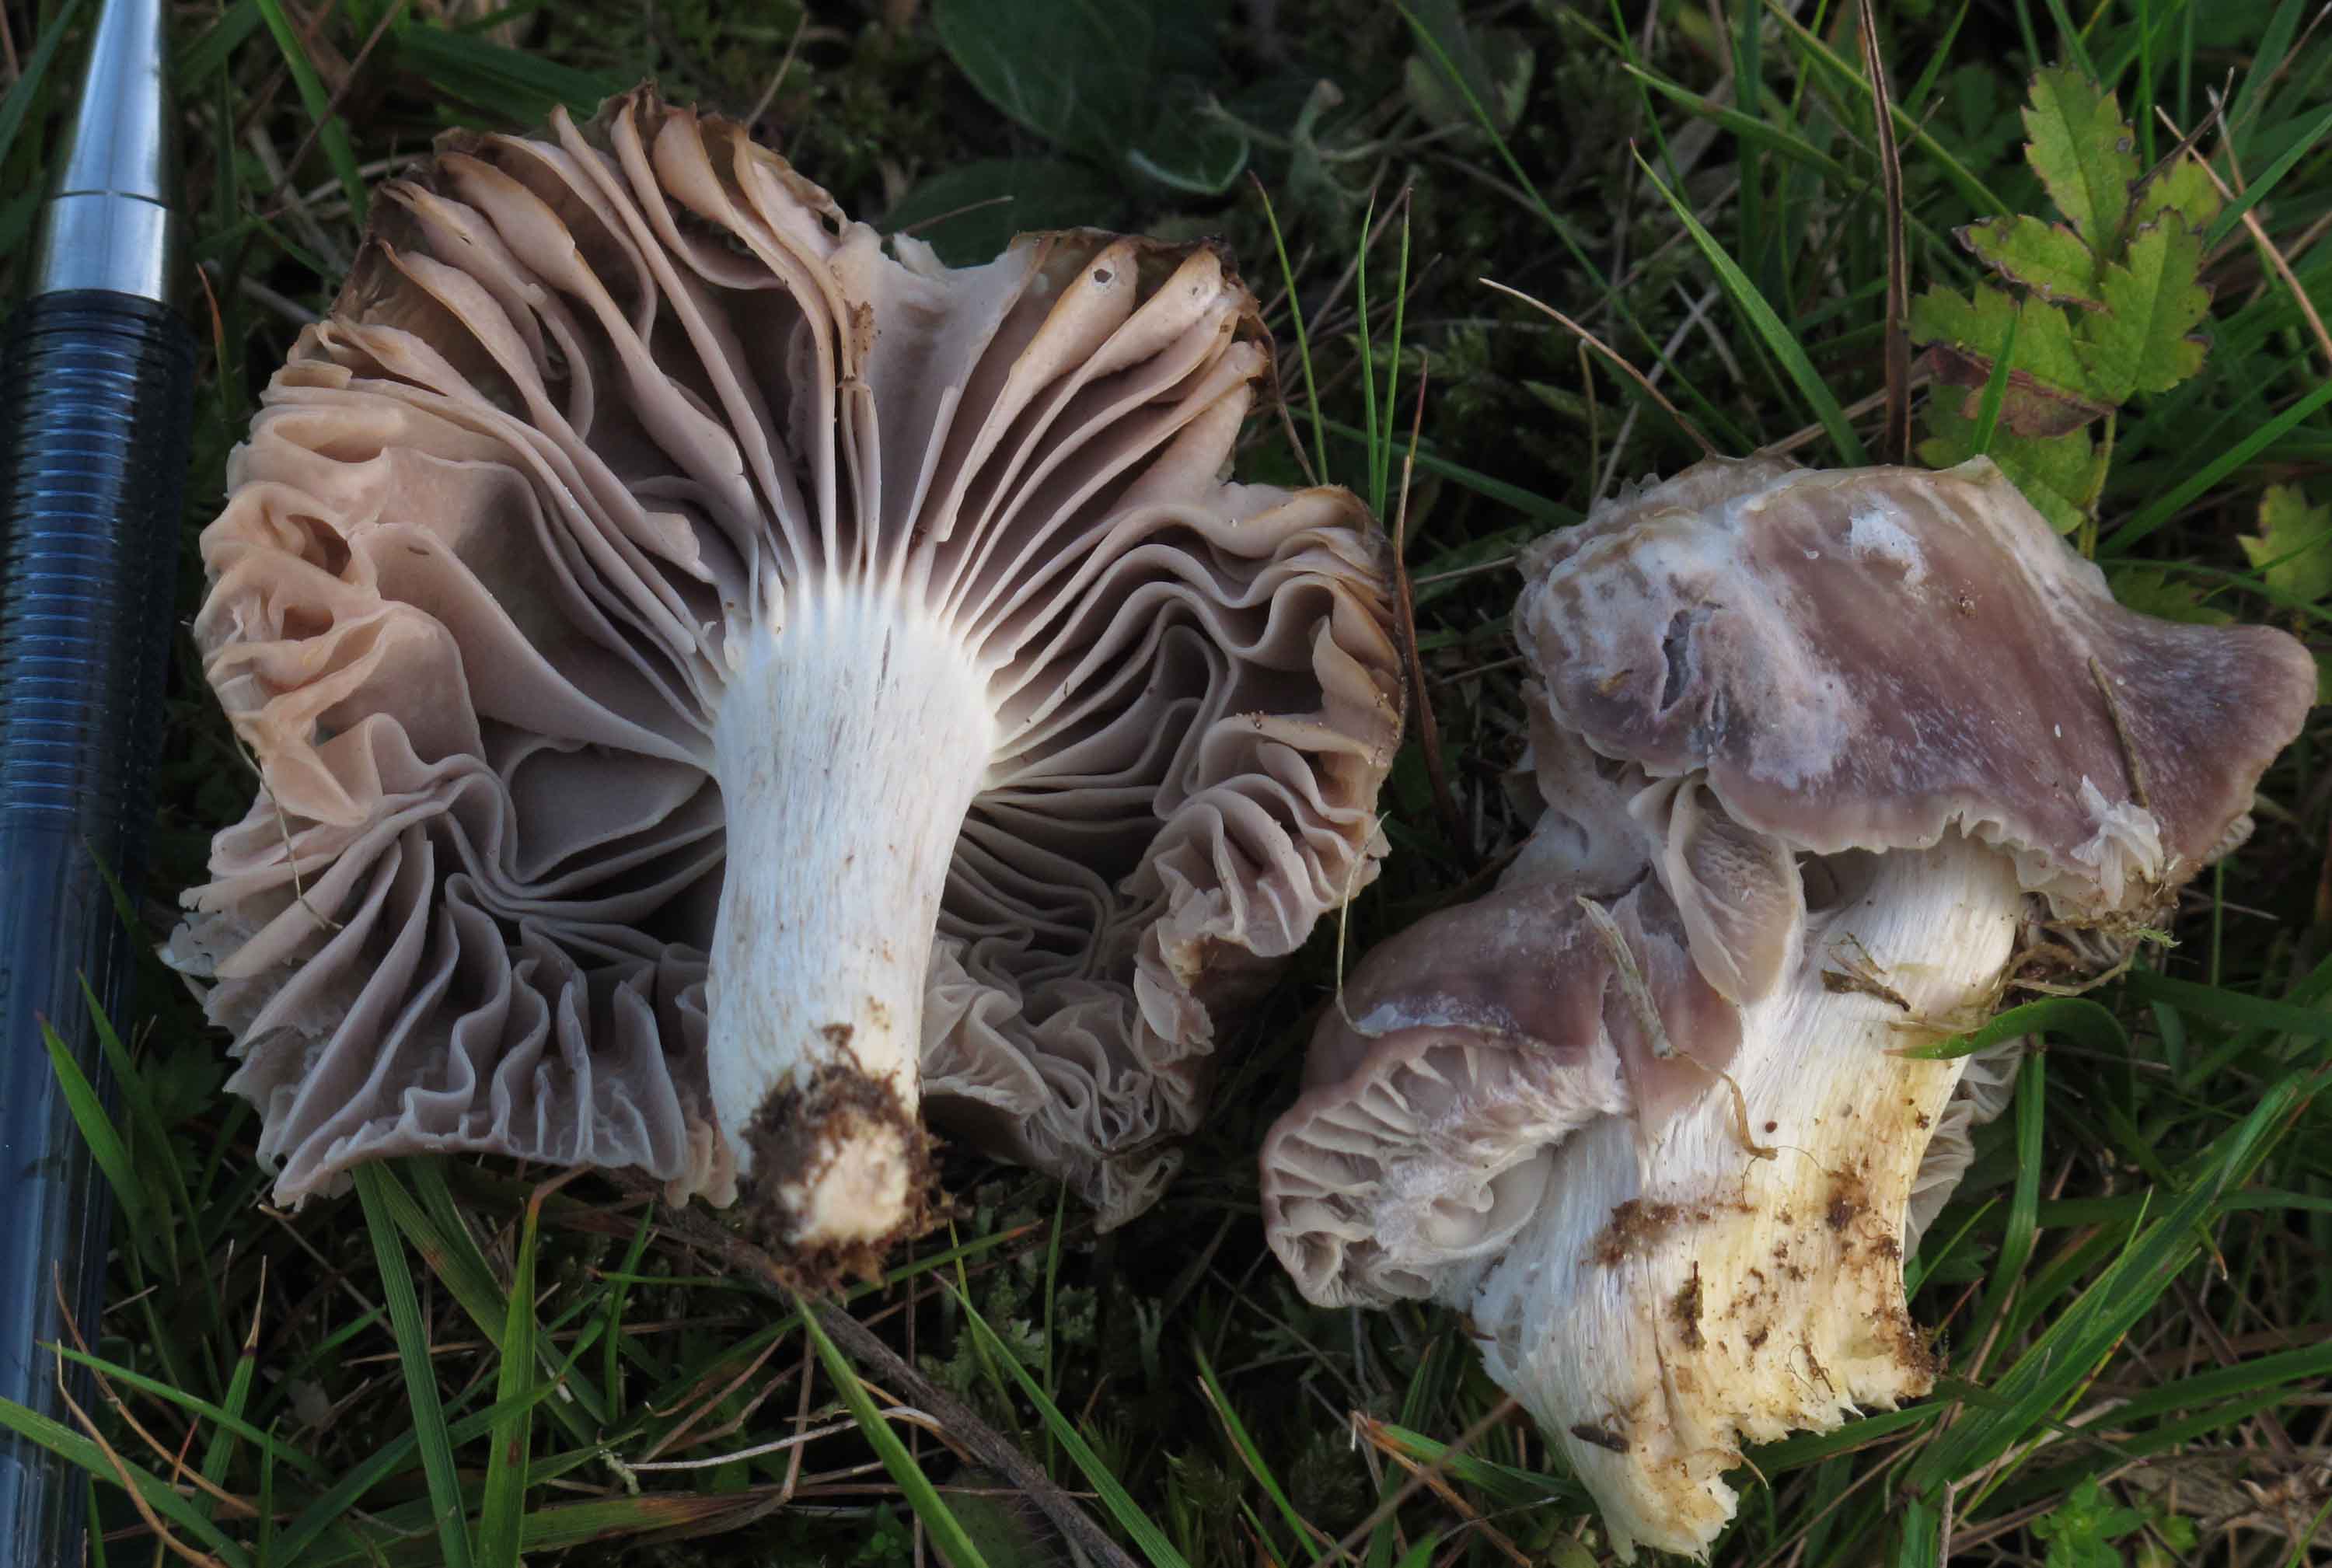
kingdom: Fungi
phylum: Basidiomycota
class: Agaricomycetes
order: Agaricales
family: Hygrophoraceae
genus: Cuphophyllus
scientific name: Cuphophyllus flavipes
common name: gulfodet vokshat
